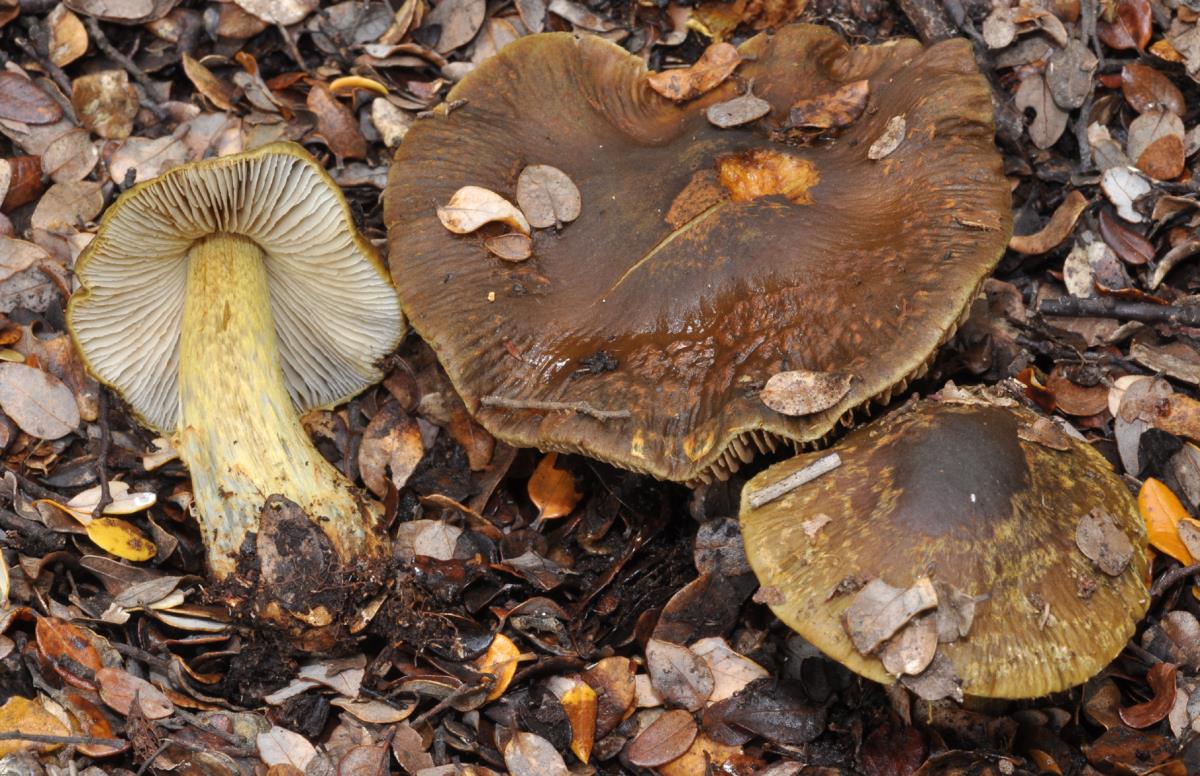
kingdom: Fungi
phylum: Basidiomycota
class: Agaricomycetes
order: Agaricales
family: Cortinariaceae
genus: Cortinarius
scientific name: Cortinarius elaiochrous
